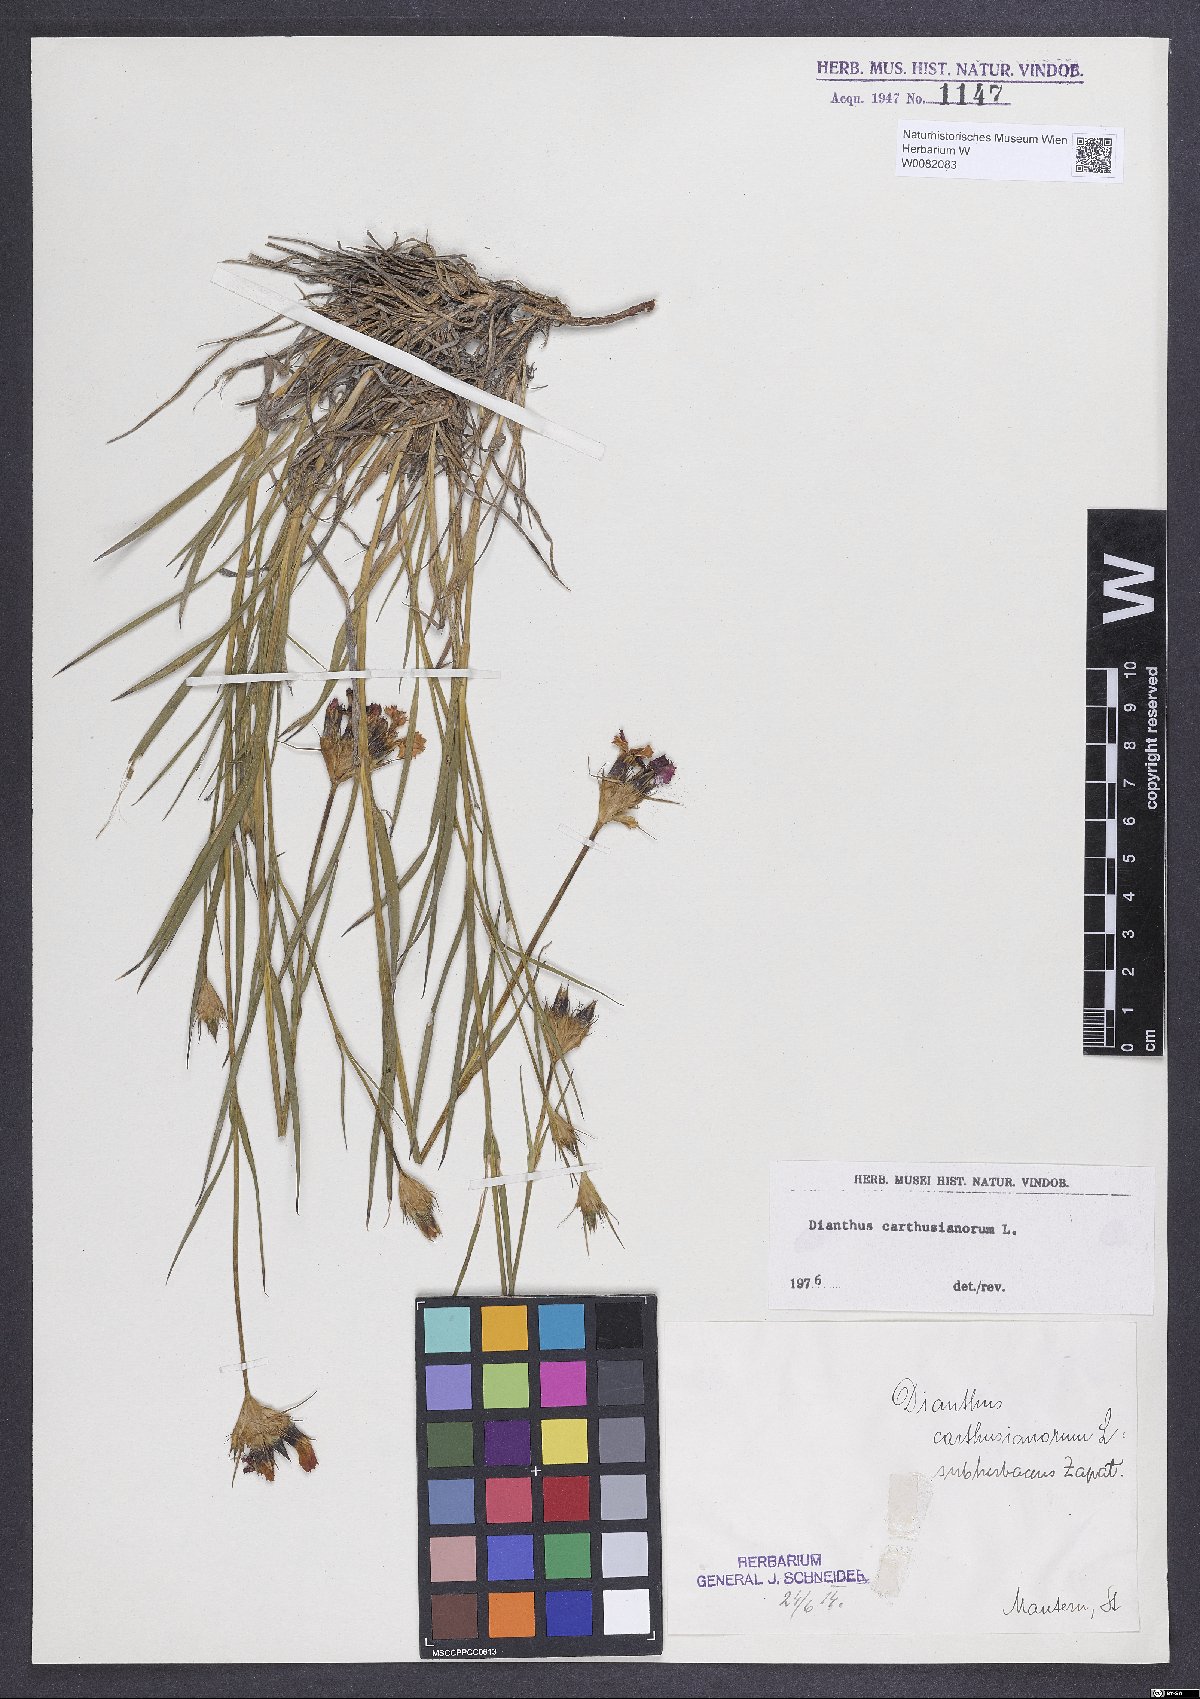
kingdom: Plantae
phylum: Tracheophyta
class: Magnoliopsida
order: Caryophyllales
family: Caryophyllaceae
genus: Dianthus
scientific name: Dianthus carthusianorum
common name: Carthusian pink
